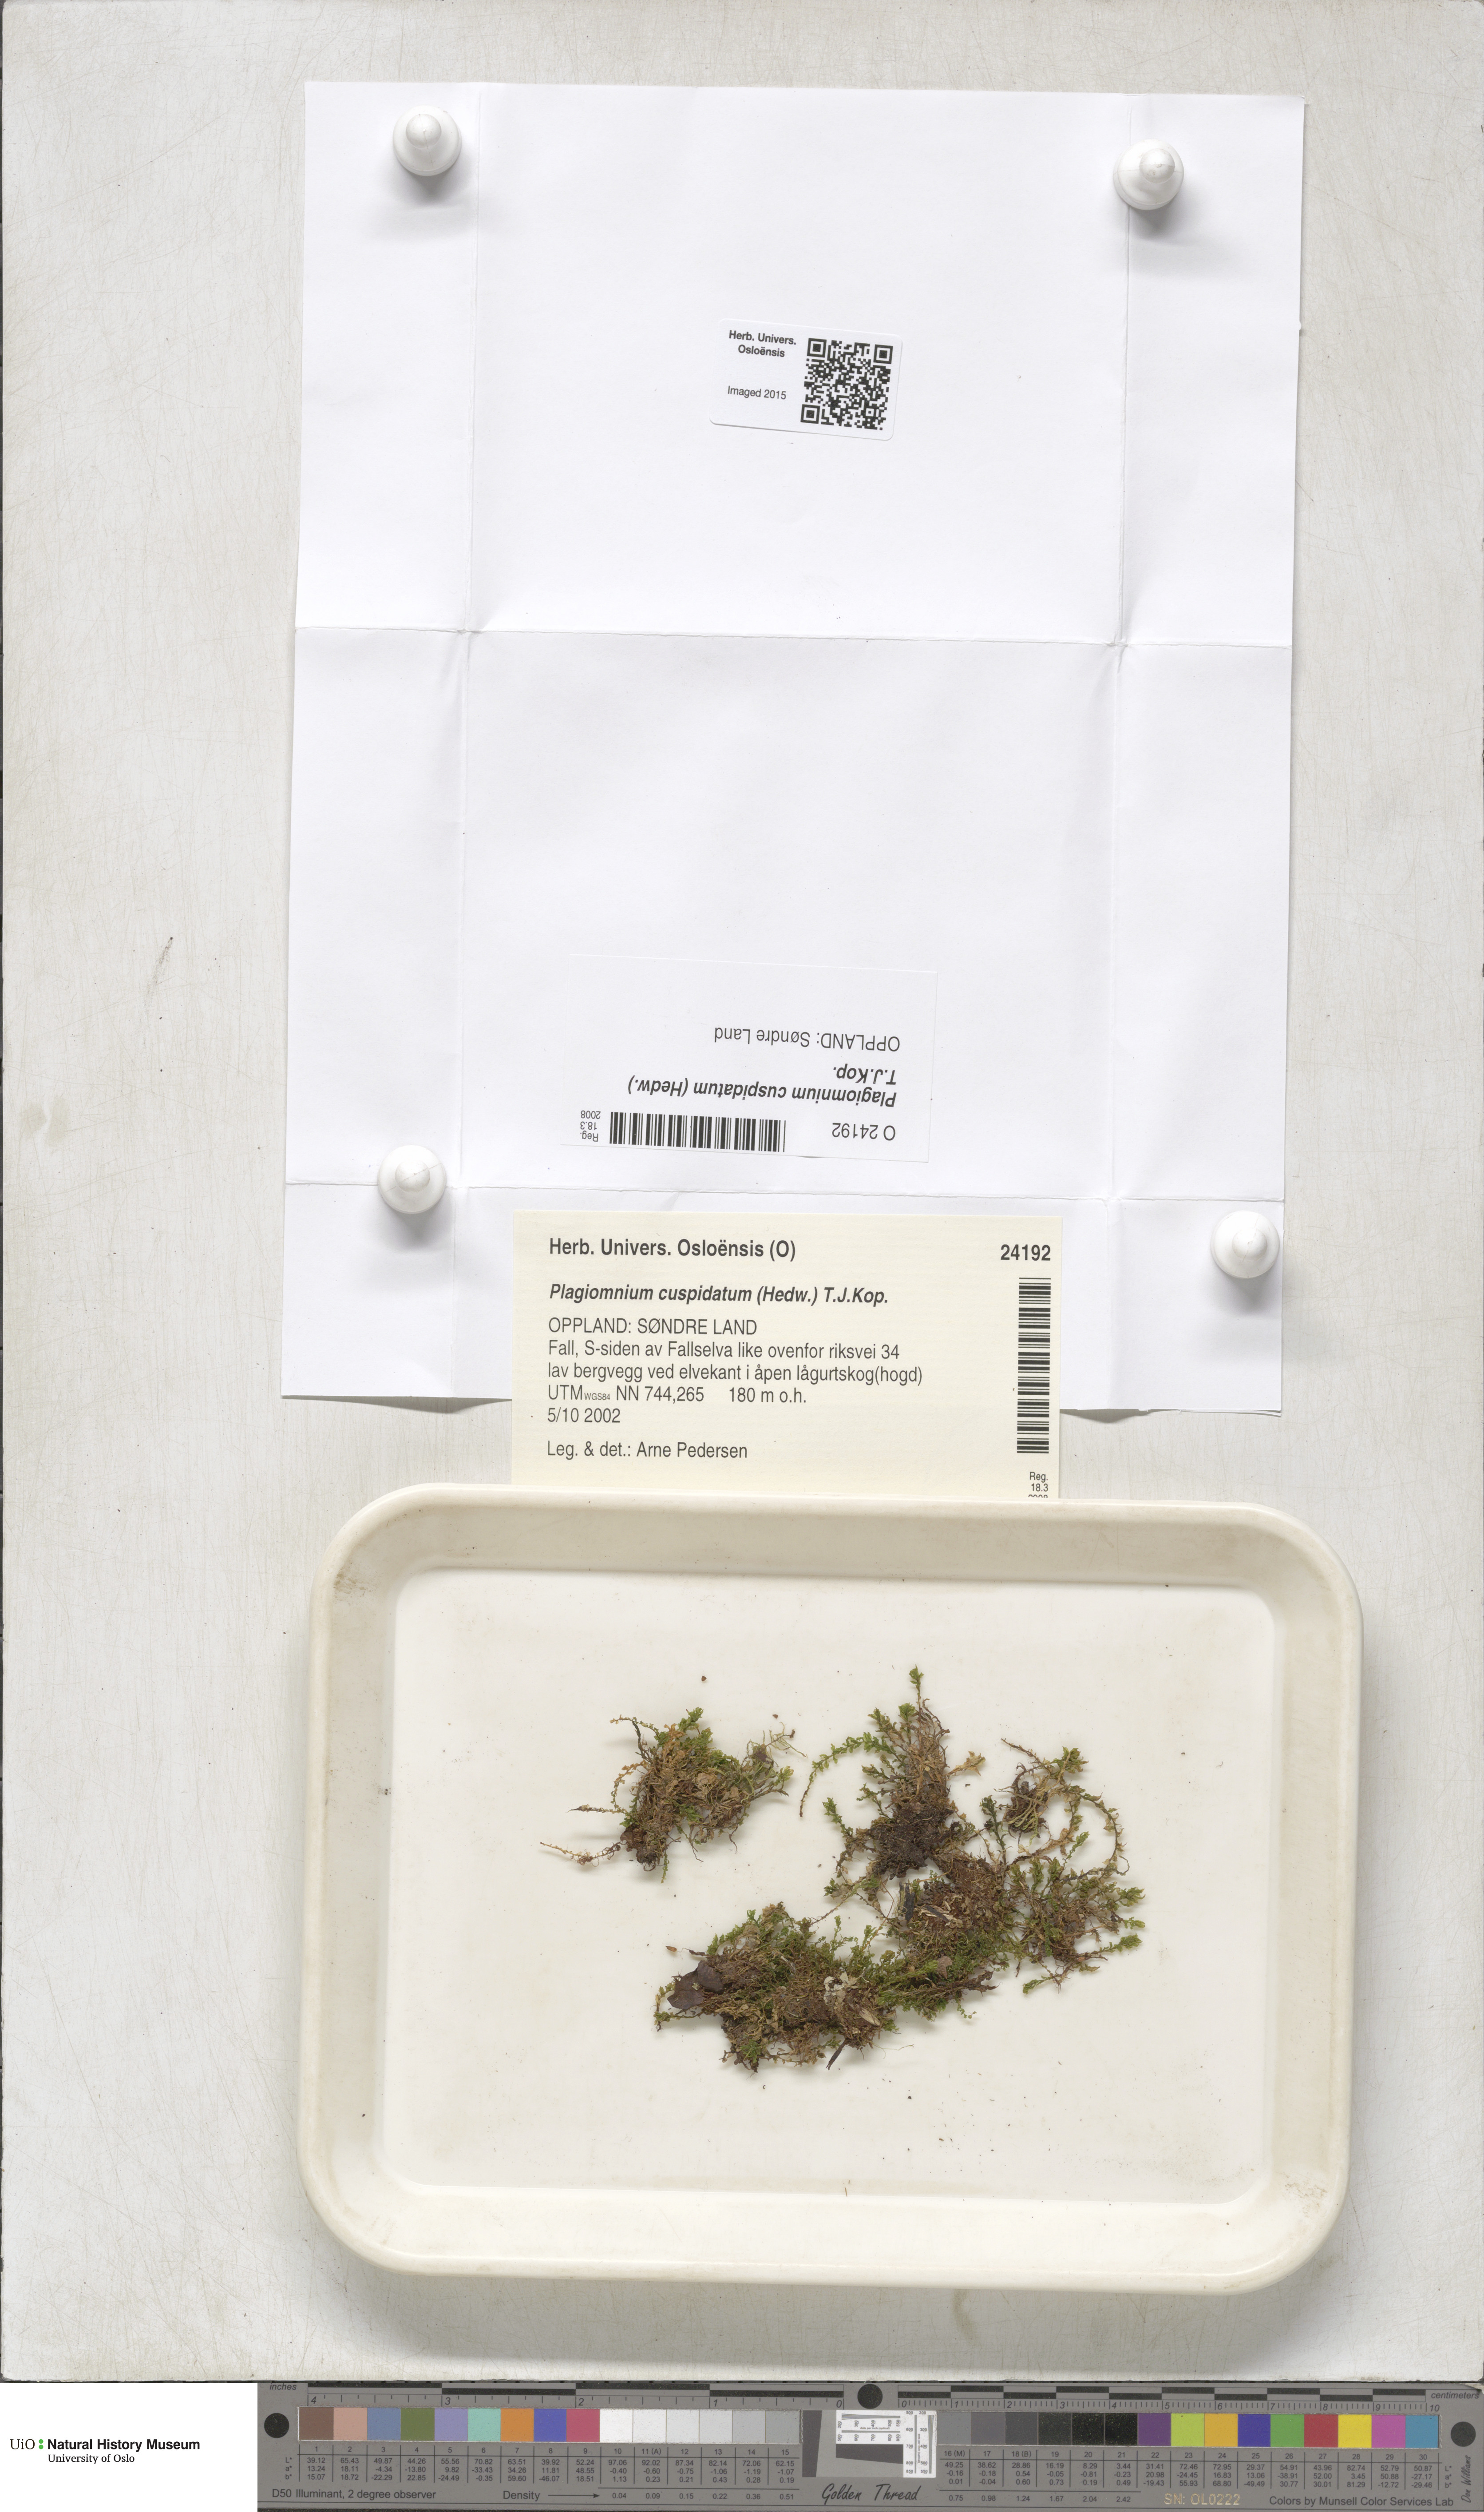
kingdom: Plantae
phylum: Bryophyta
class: Bryopsida
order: Bryales
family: Mniaceae
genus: Plagiomnium
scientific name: Plagiomnium cuspidatum
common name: Woodsy leafy moss
